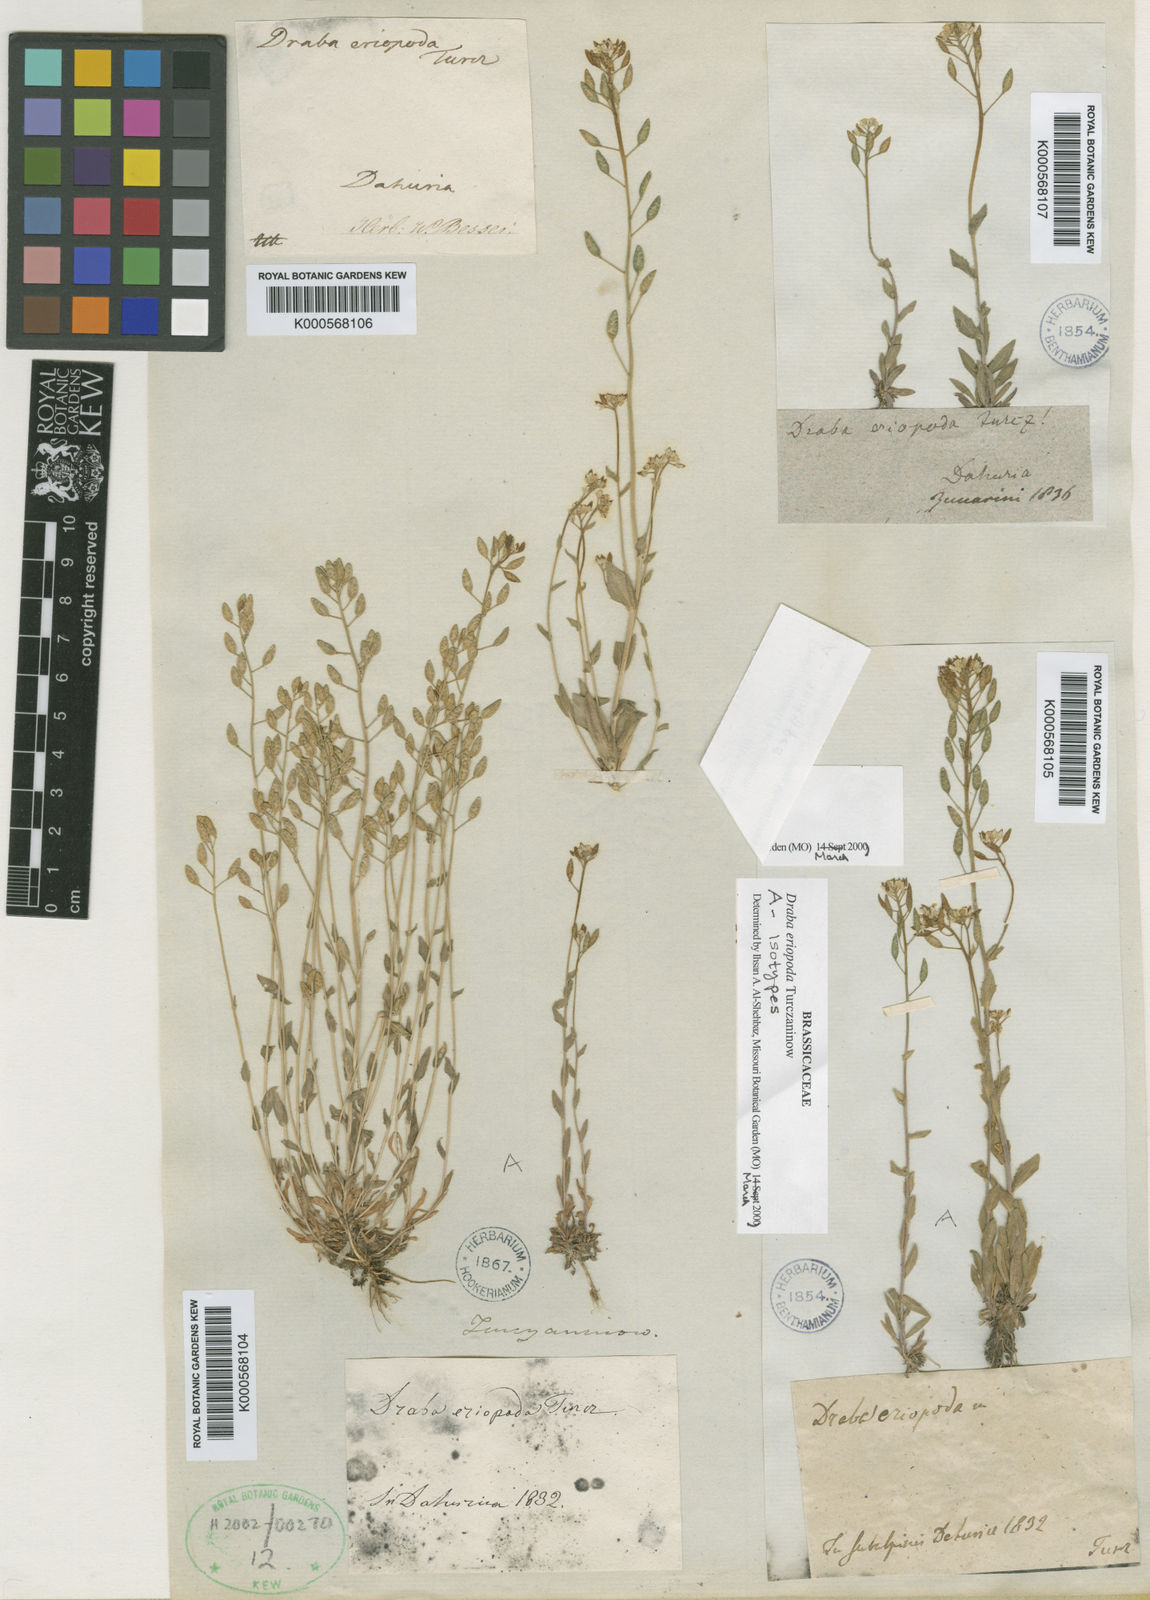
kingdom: Plantae
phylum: Tracheophyta
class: Magnoliopsida
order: Brassicales
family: Brassicaceae
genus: Draba
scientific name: Draba
